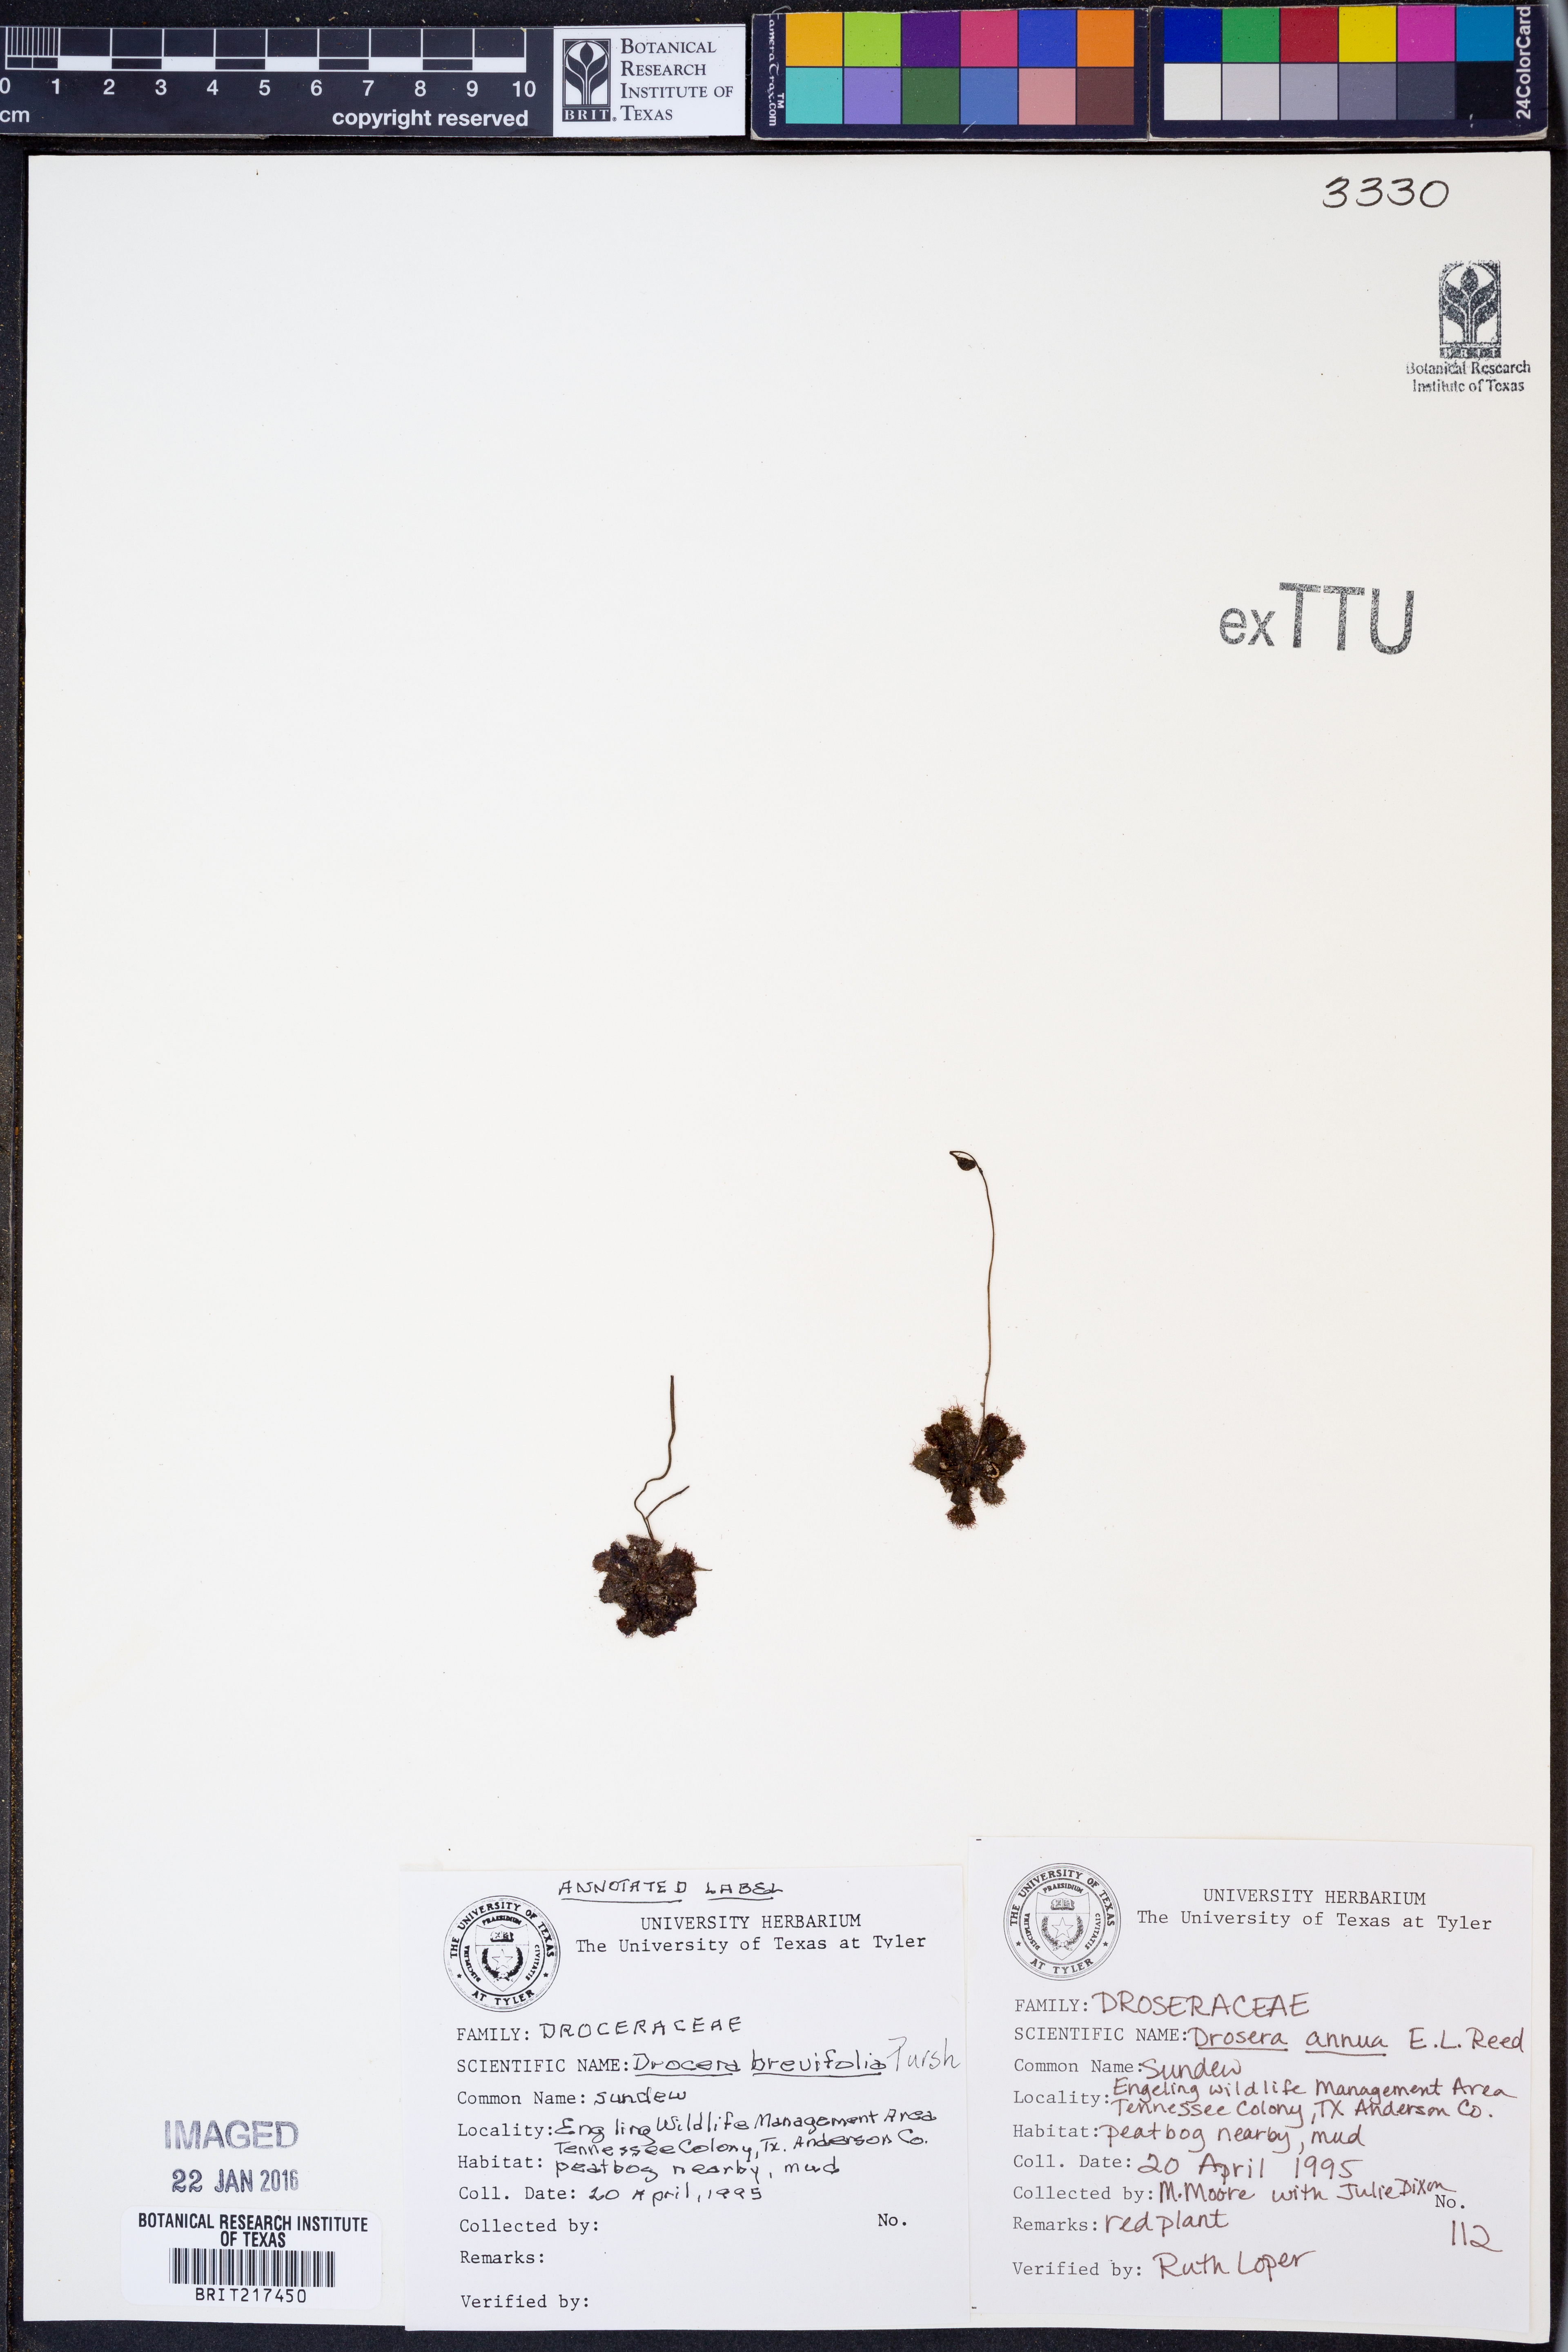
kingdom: Plantae
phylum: Tracheophyta
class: Magnoliopsida
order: Caryophyllales
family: Droseraceae
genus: Drosera
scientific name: Drosera brevifolia
